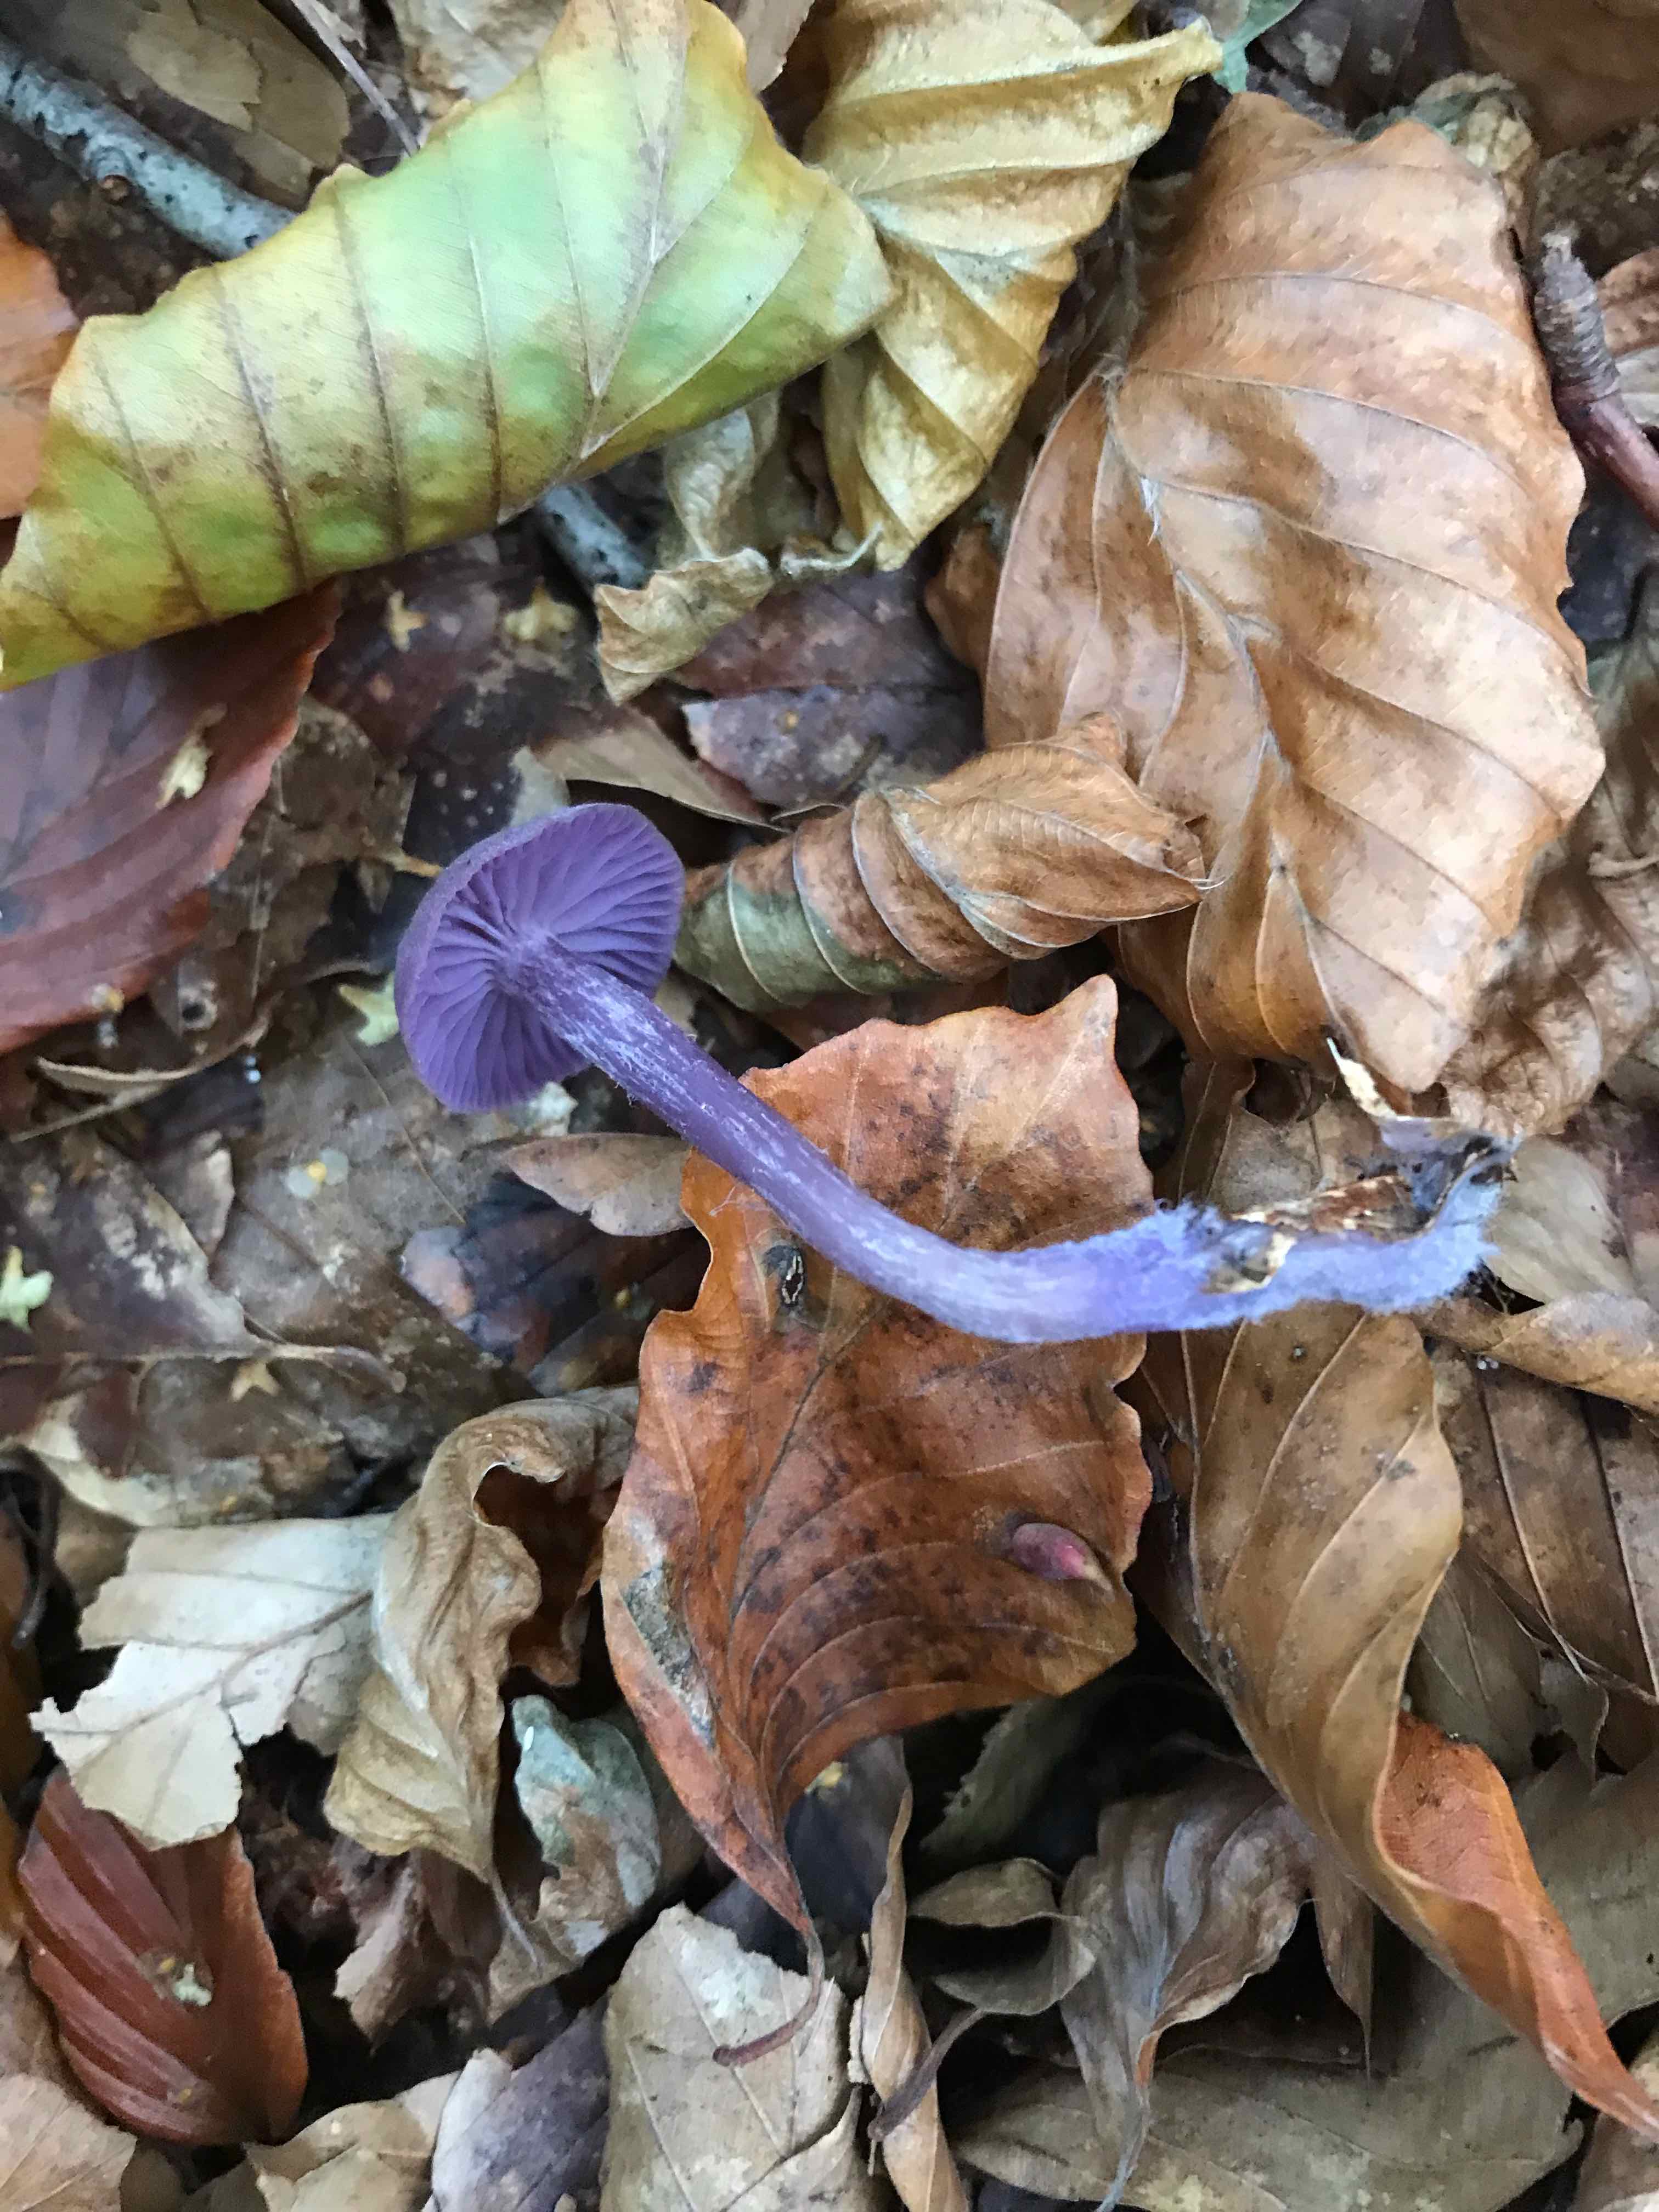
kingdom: Fungi
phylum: Basidiomycota
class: Agaricomycetes
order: Agaricales
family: Hydnangiaceae
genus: Laccaria
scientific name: Laccaria amethystina
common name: violet ametysthat
